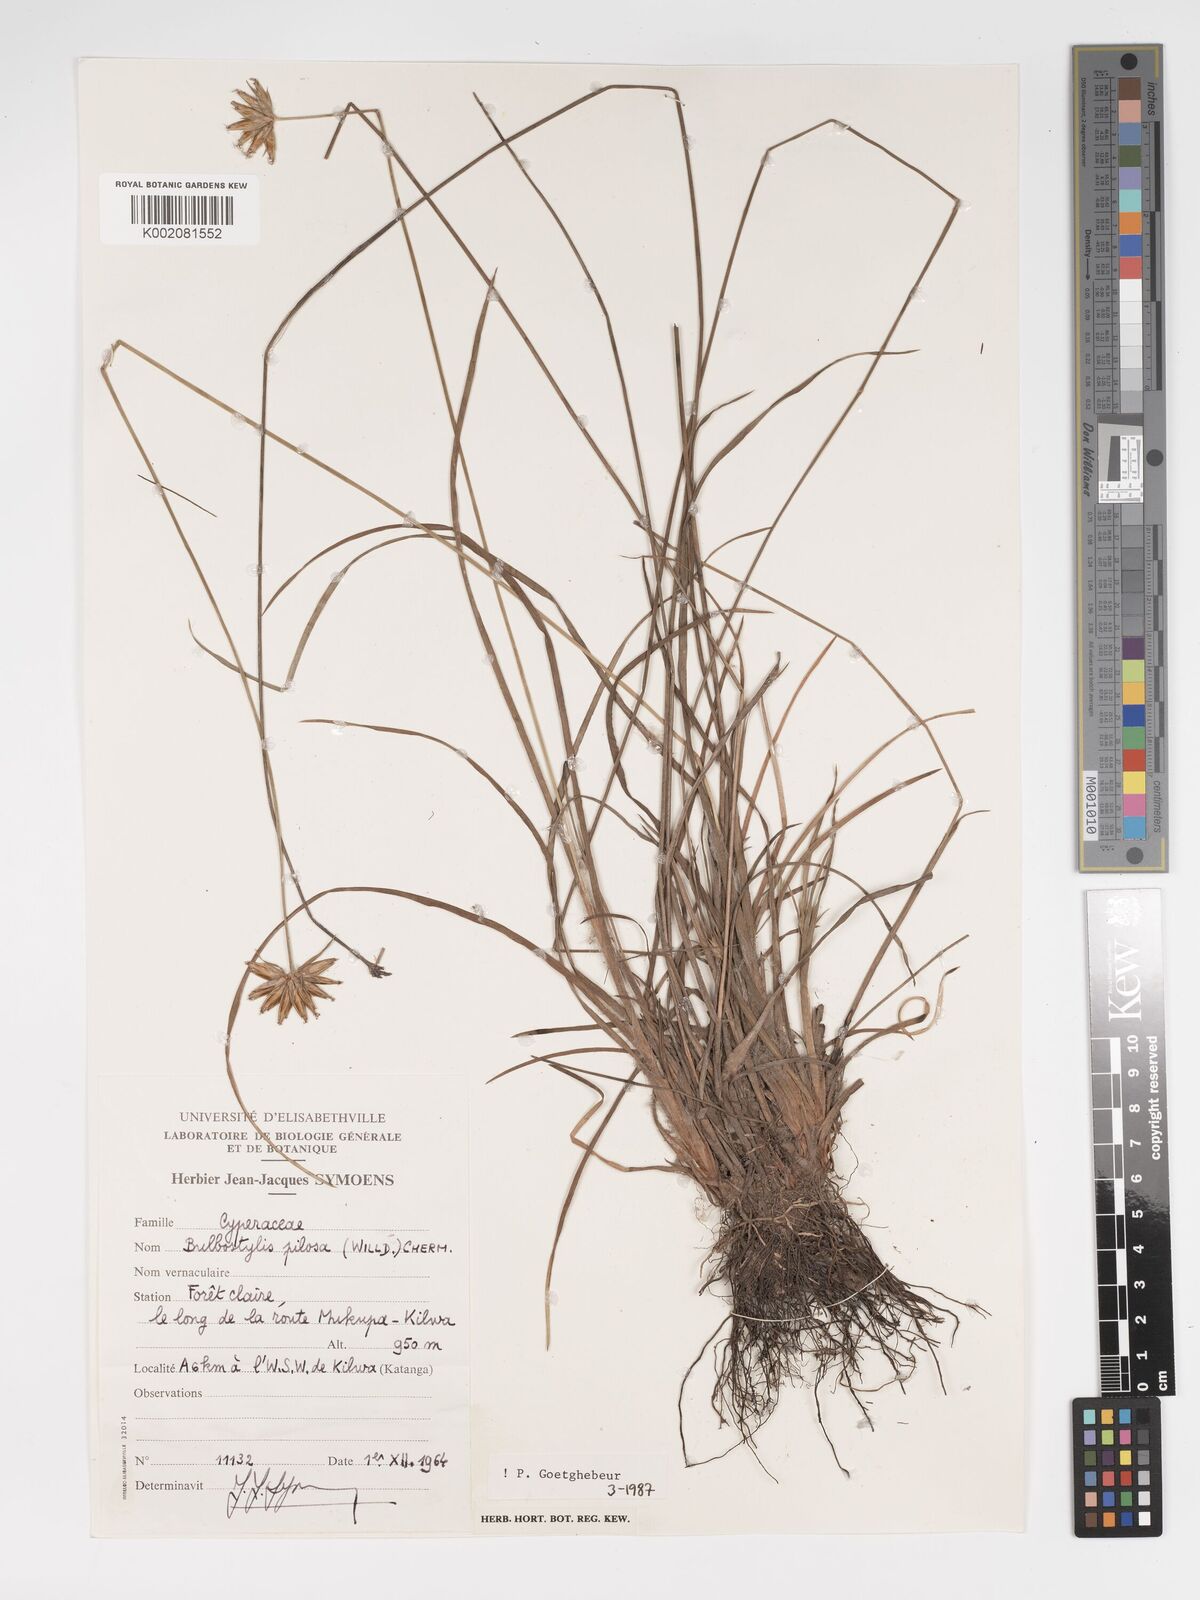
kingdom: Plantae
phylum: Tracheophyta
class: Liliopsida
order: Poales
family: Cyperaceae
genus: Bulbostylis
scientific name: Bulbostylis pilosa
